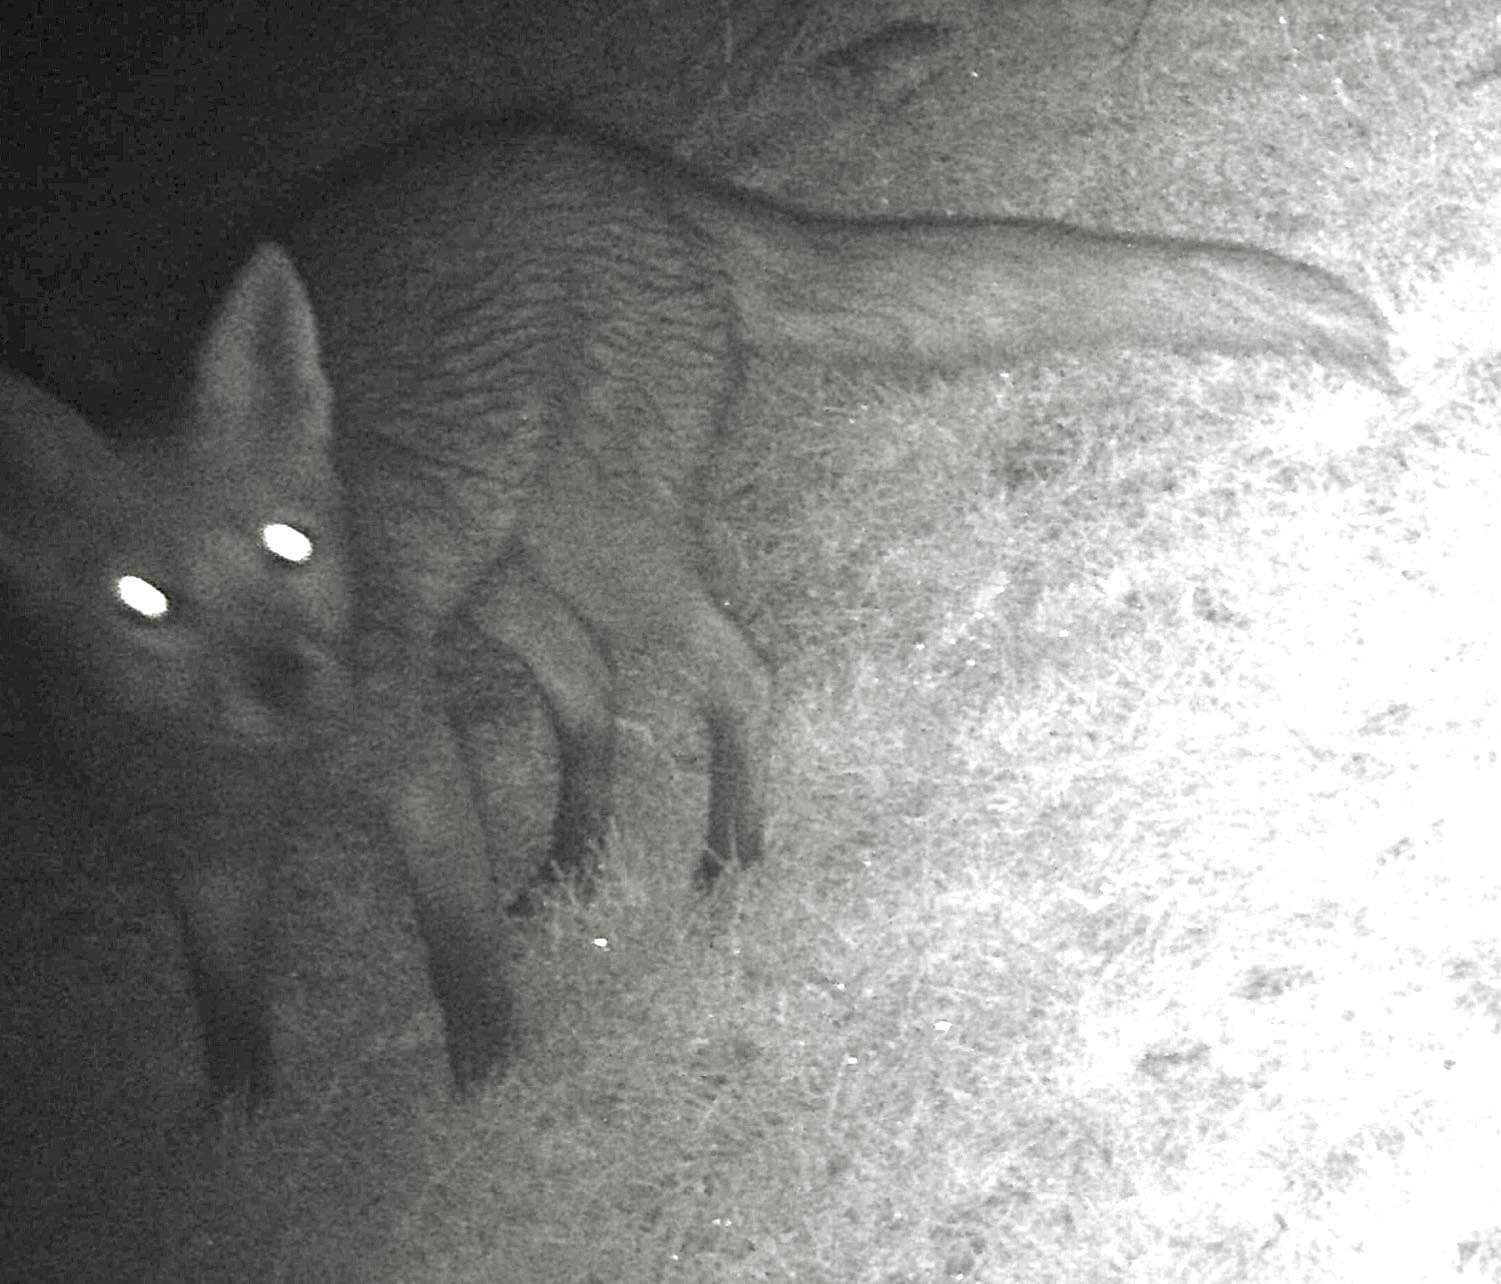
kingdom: Animalia
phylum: Chordata
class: Mammalia
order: Carnivora
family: Canidae
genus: Vulpes
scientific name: Vulpes vulpes
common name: Ræv
